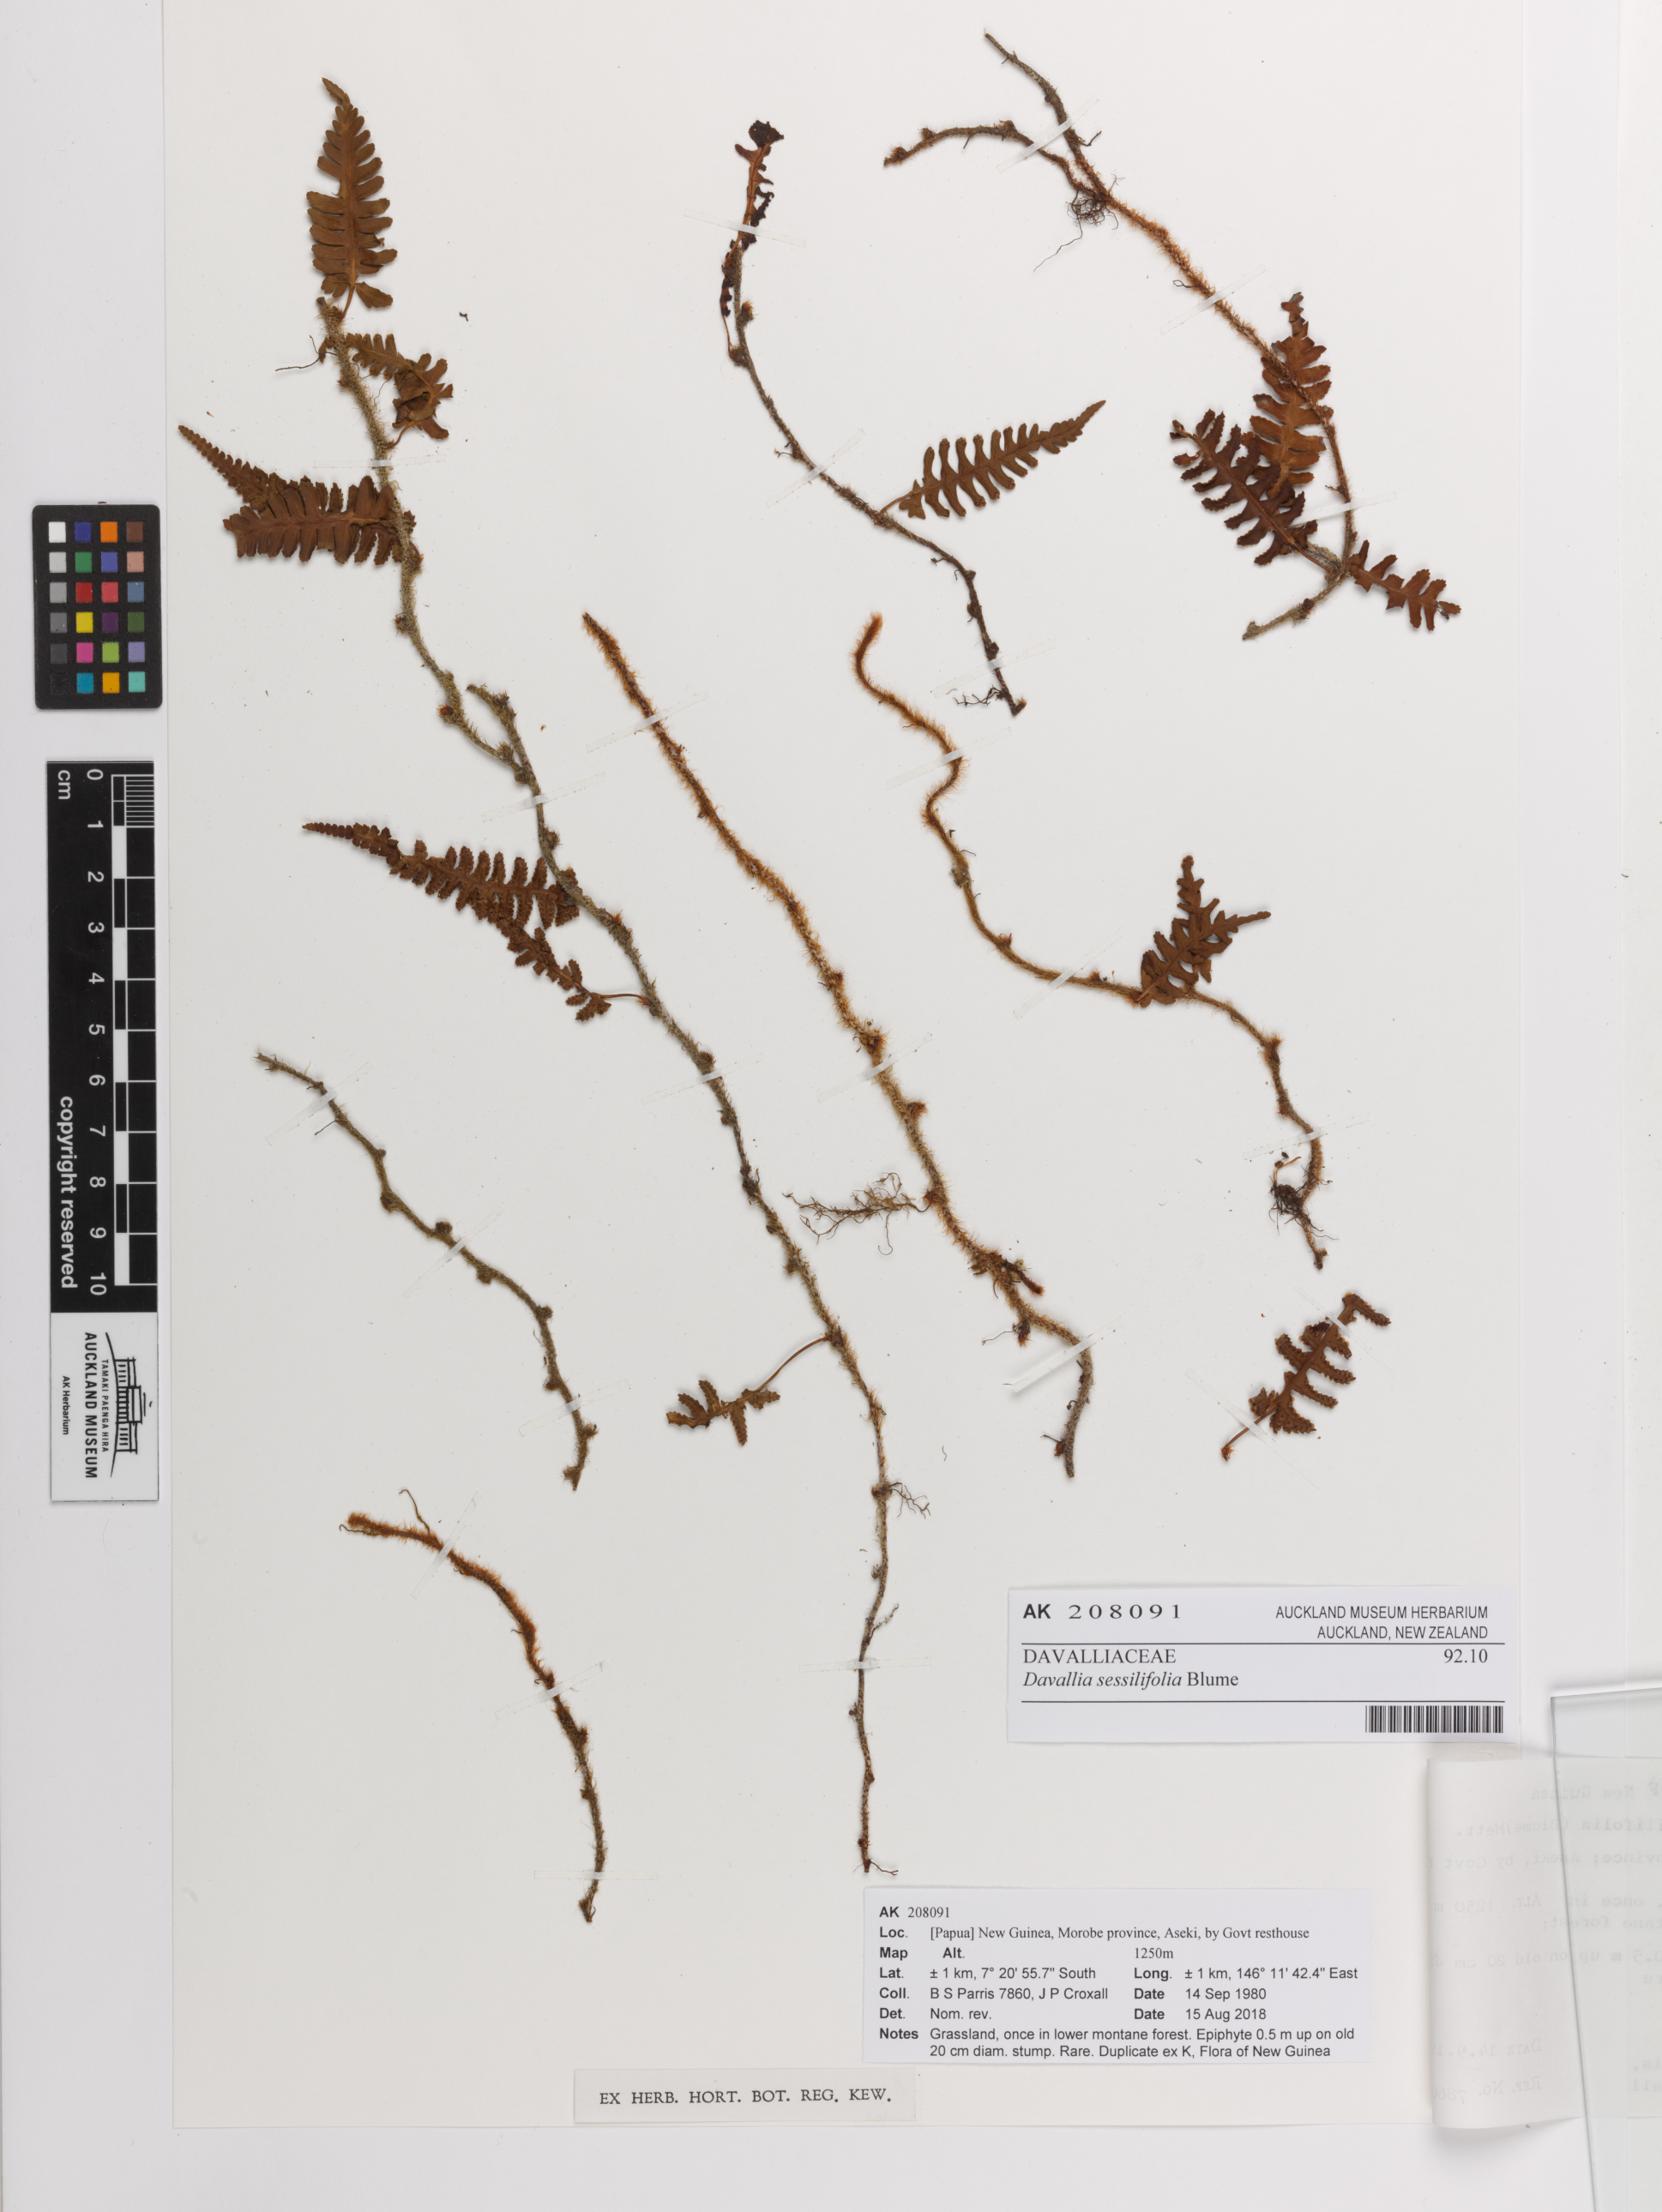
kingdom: Plantae
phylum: Tracheophyta
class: Polypodiopsida
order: Polypodiales
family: Davalliaceae
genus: Davallia
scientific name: Davallia sessilifolia
